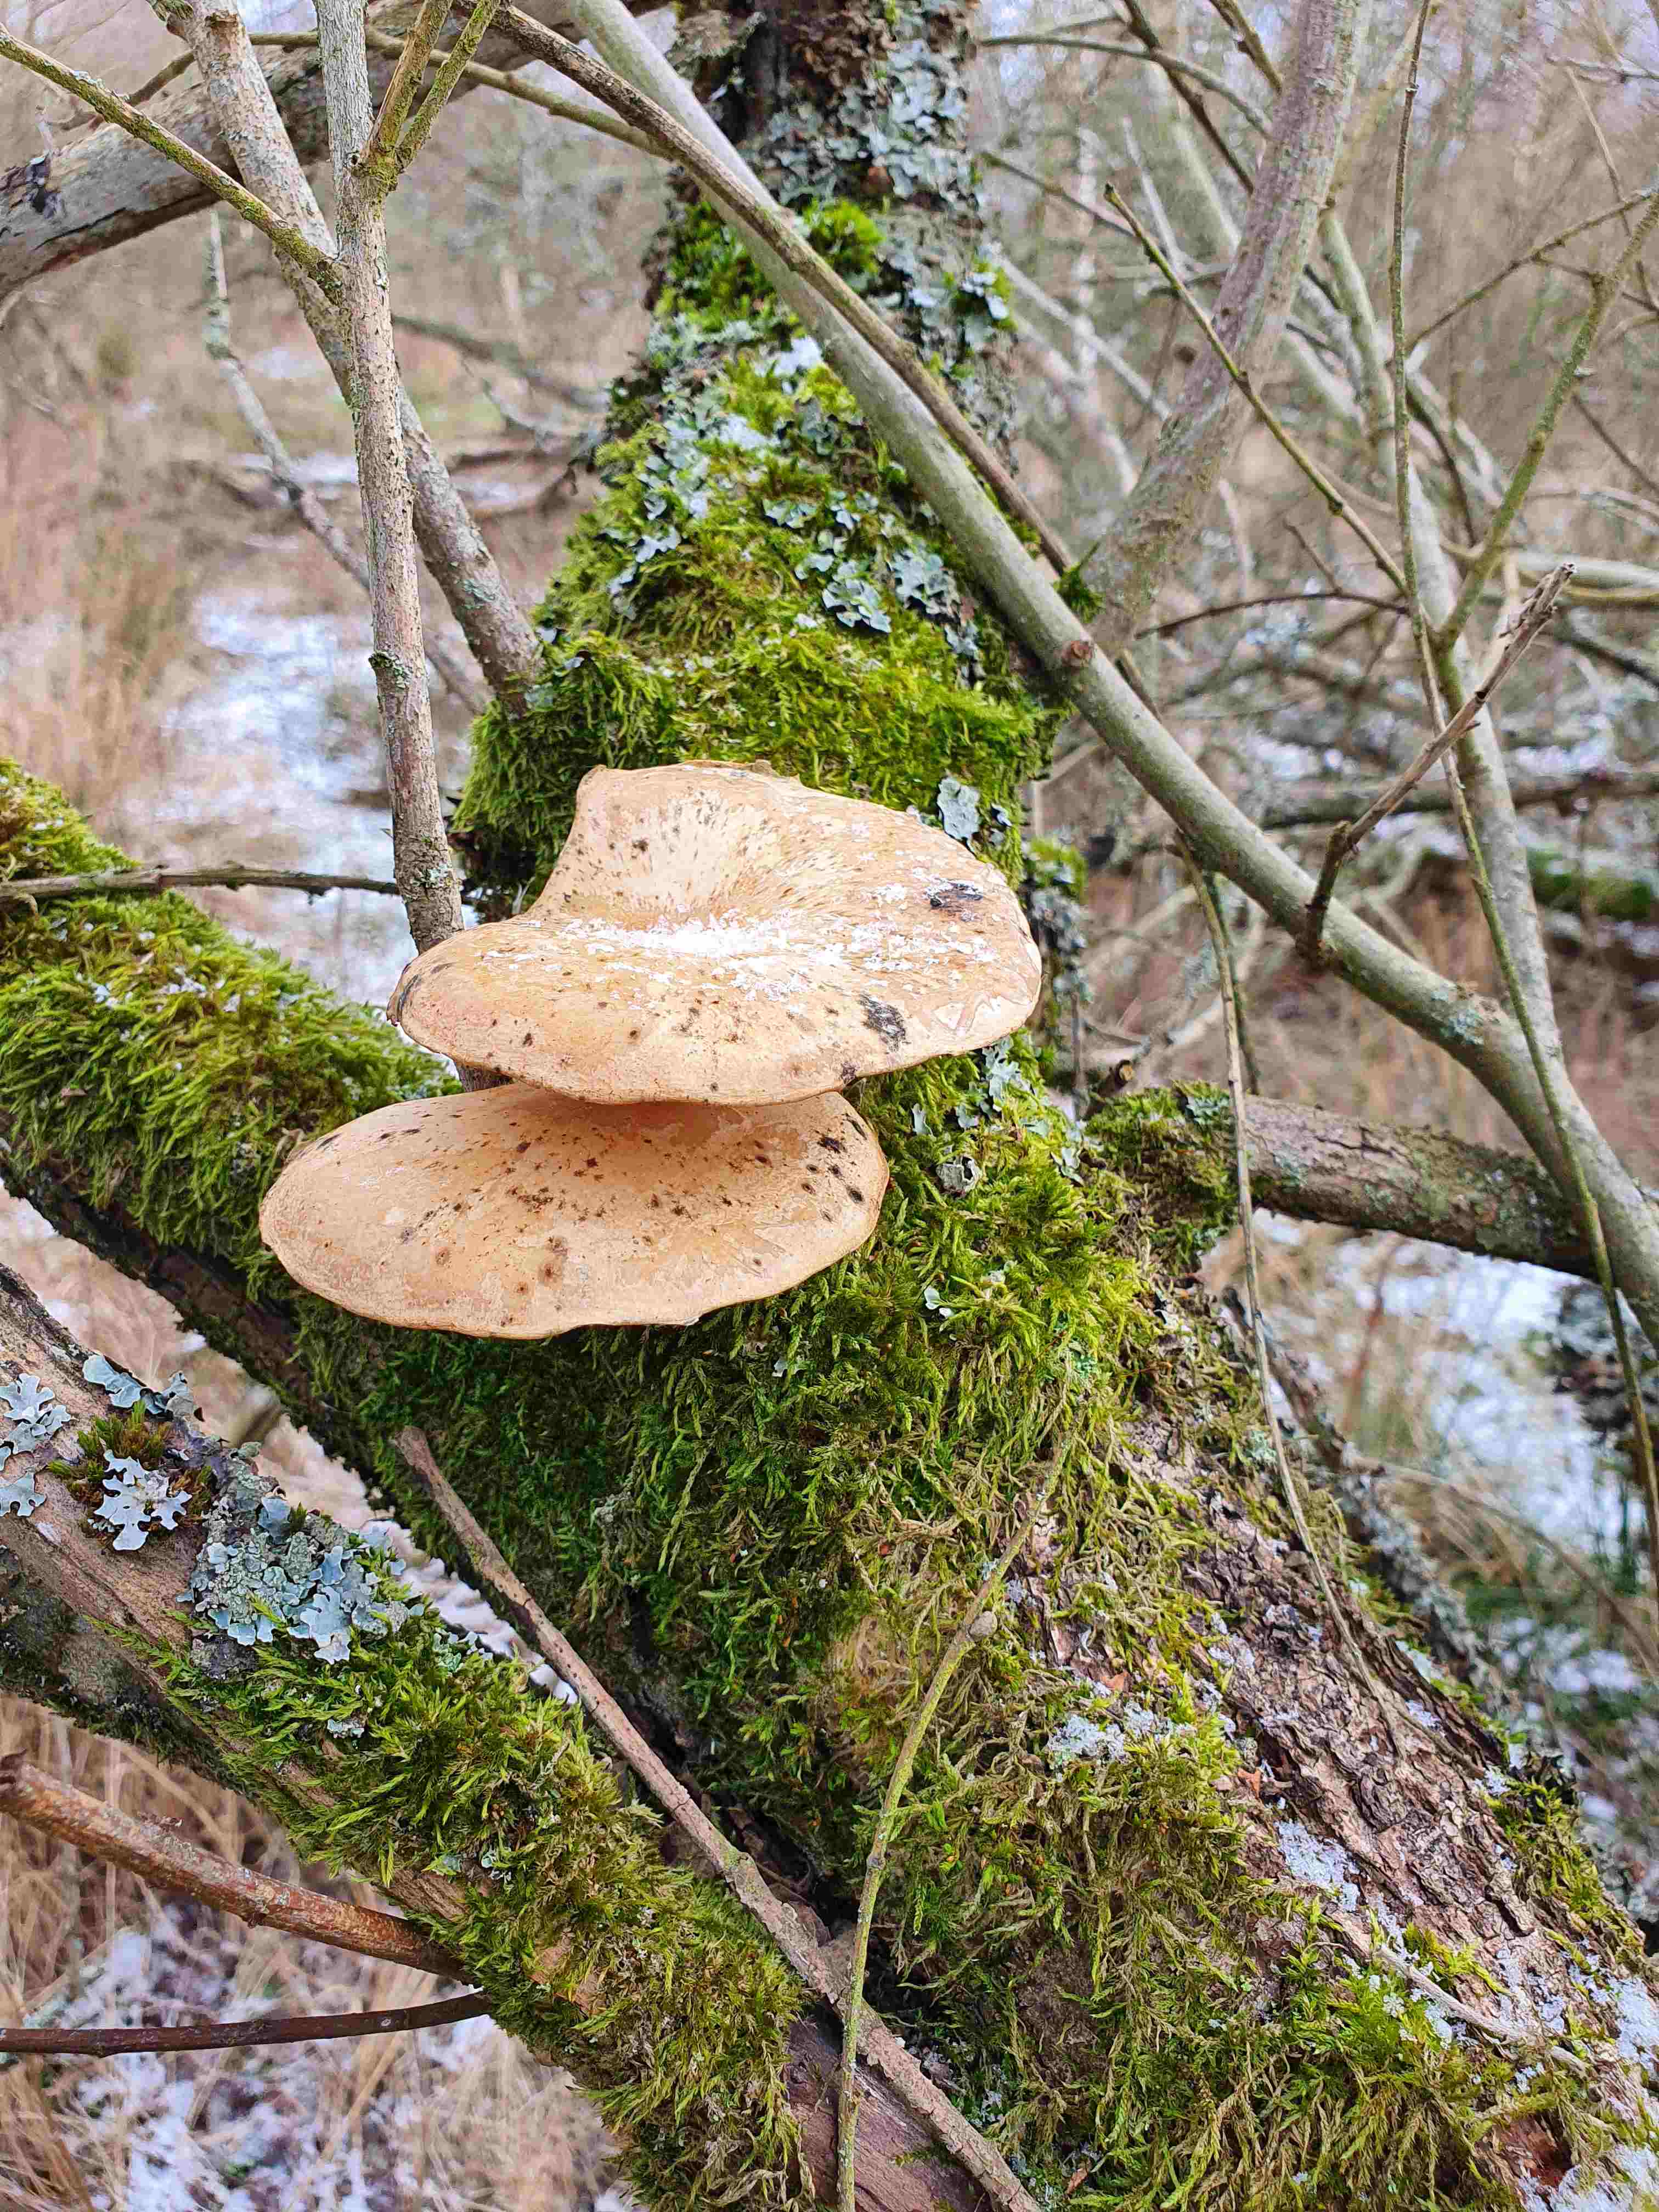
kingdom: Fungi
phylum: Basidiomycota
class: Agaricomycetes
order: Agaricales
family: Pleurotaceae
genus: Pleurotus
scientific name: Pleurotus ostreatus
